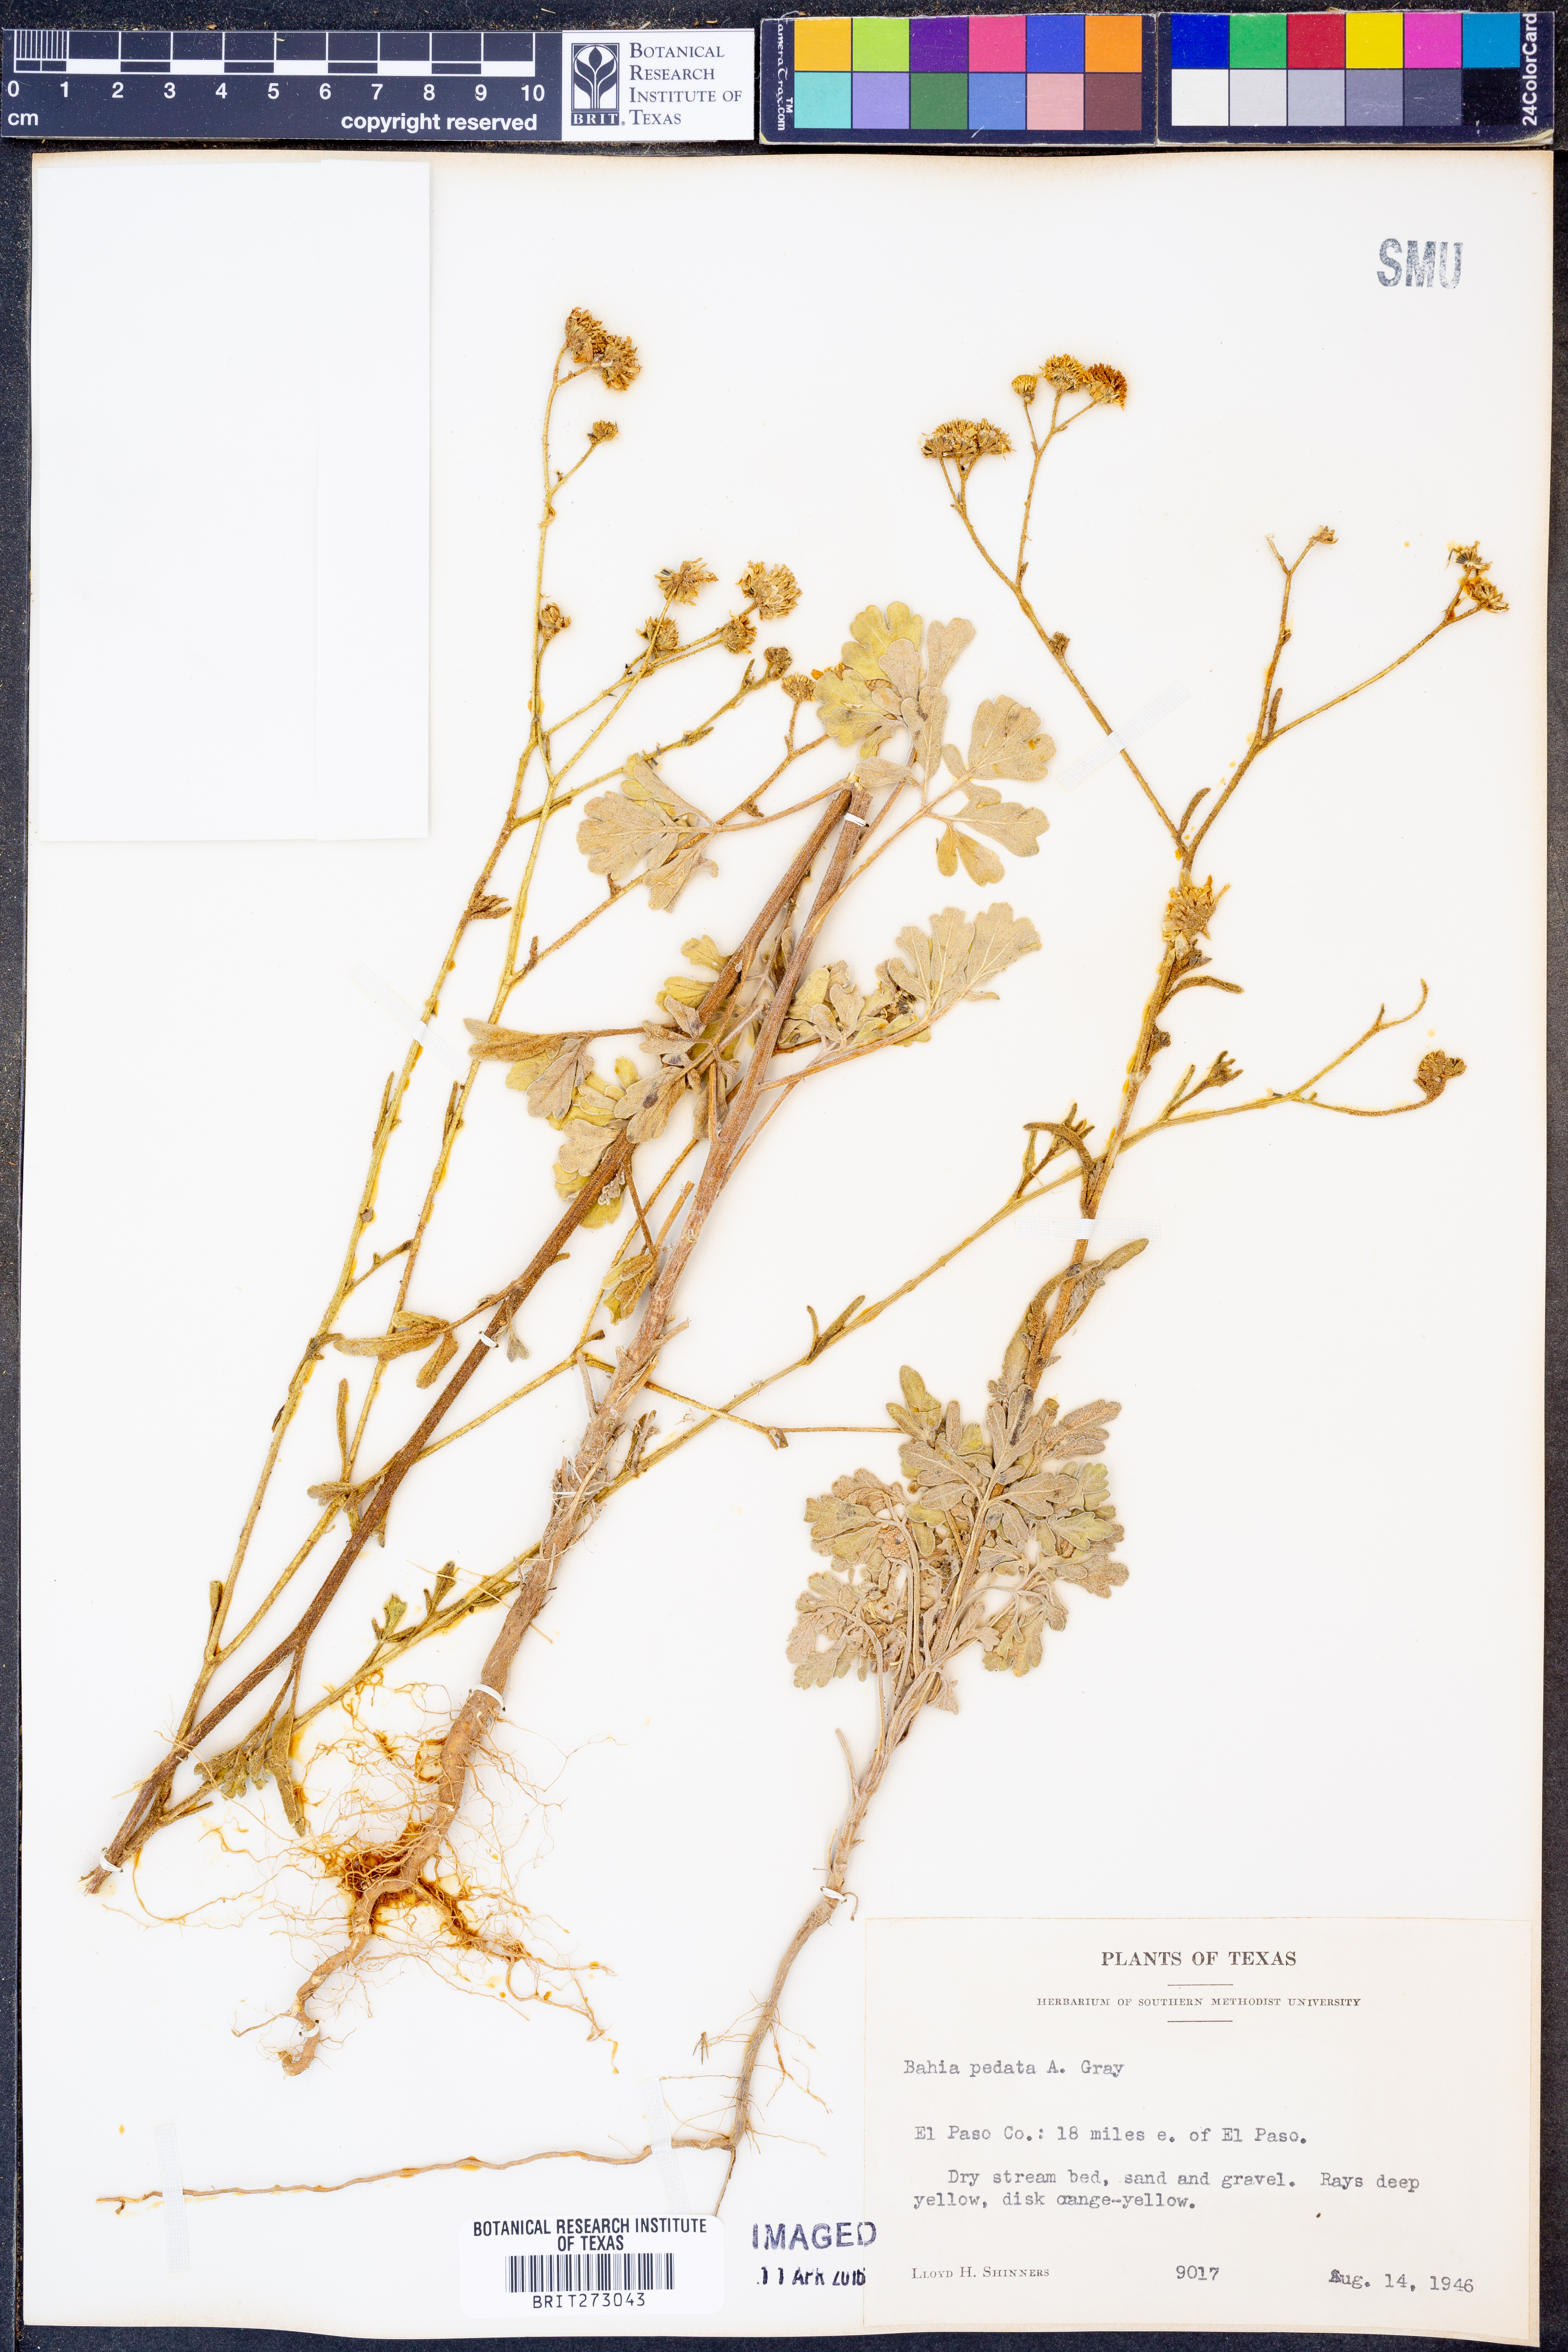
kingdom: Plantae
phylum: Tracheophyta
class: Magnoliopsida
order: Asterales
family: Asteraceae
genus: Hymenothrix
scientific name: Hymenothrix pedata
